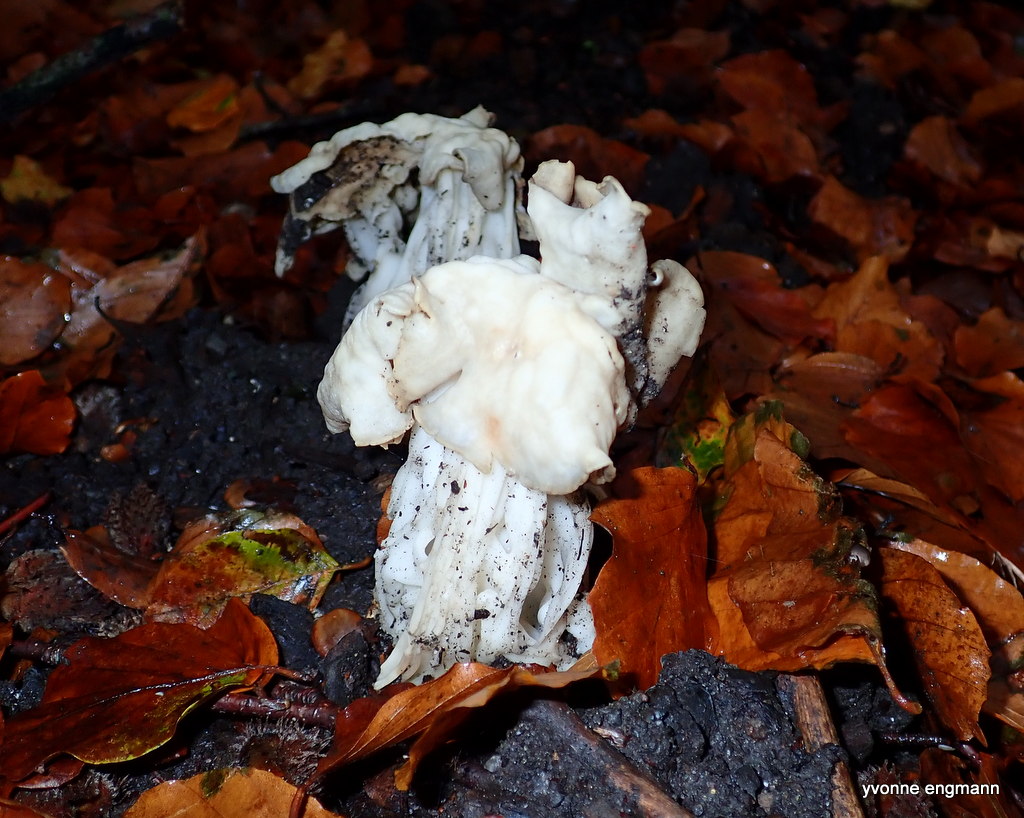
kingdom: Fungi
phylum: Ascomycota
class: Pezizomycetes
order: Pezizales
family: Helvellaceae
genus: Helvella
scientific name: Helvella crispa
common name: kruset foldhat
